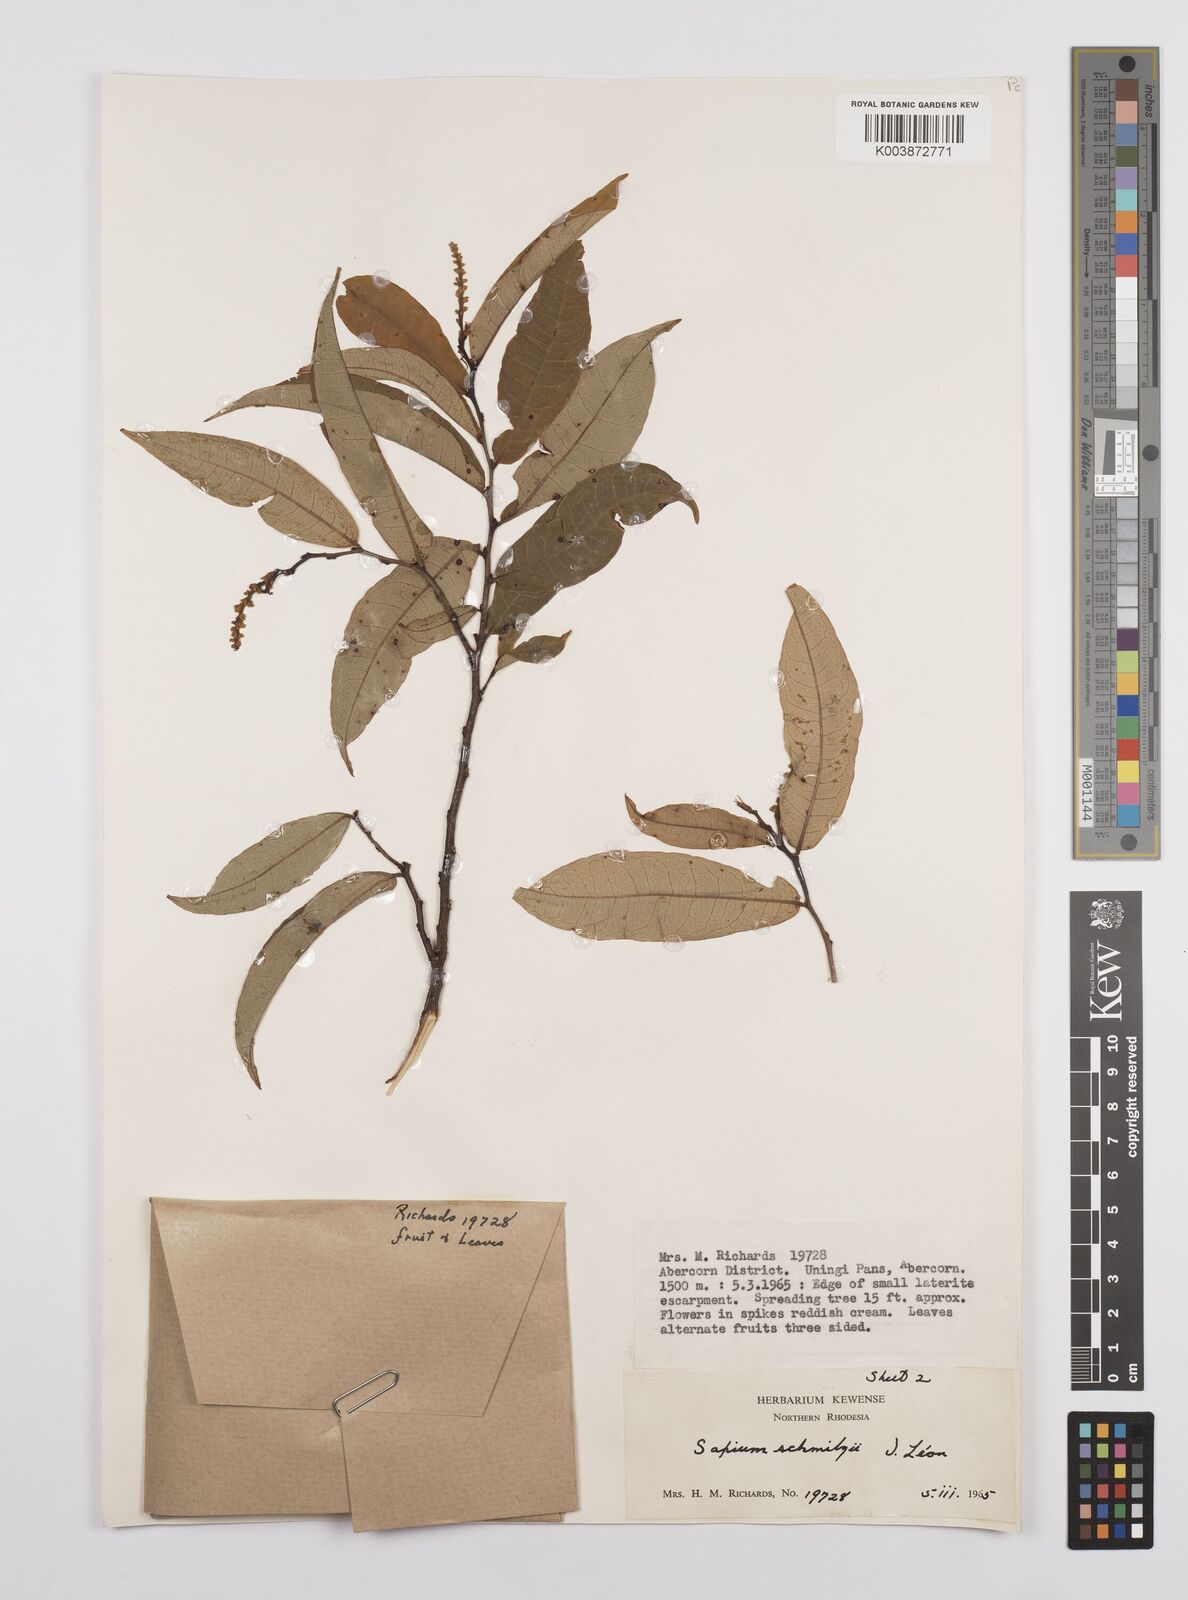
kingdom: Plantae
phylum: Tracheophyta
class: Magnoliopsida
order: Malpighiales
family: Euphorbiaceae
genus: Sclerocroton
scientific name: Sclerocroton schmitzii
